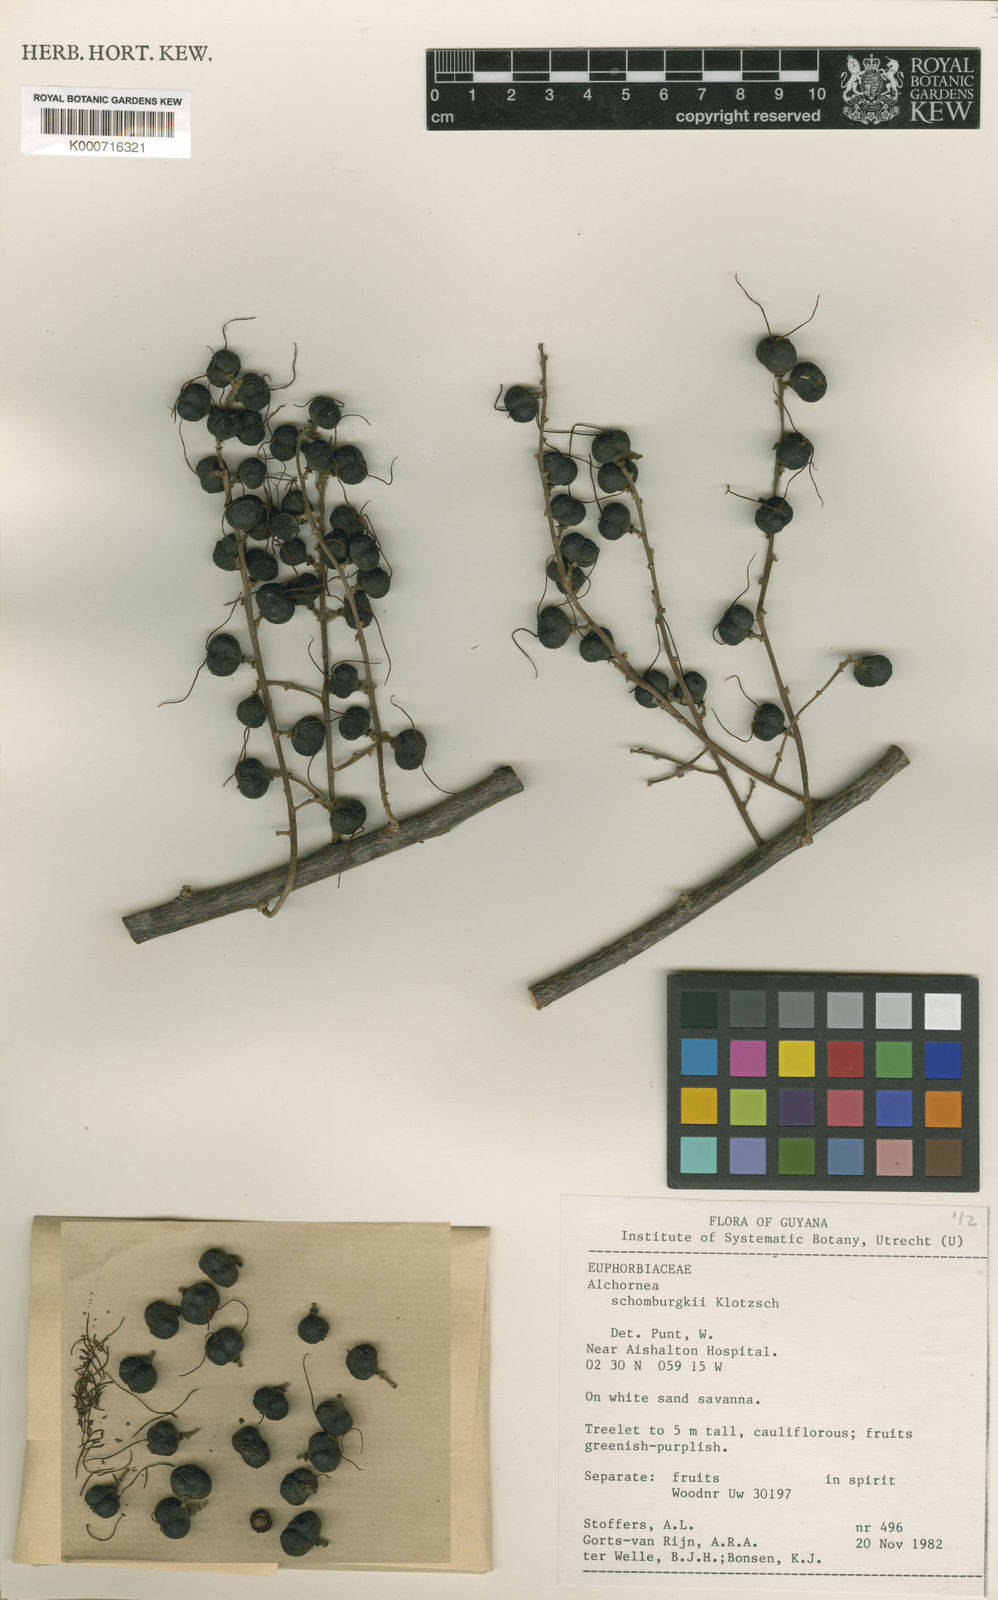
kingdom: Plantae
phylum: Tracheophyta
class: Magnoliopsida
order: Malpighiales
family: Euphorbiaceae
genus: Alchornea
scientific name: Alchornea discolor
